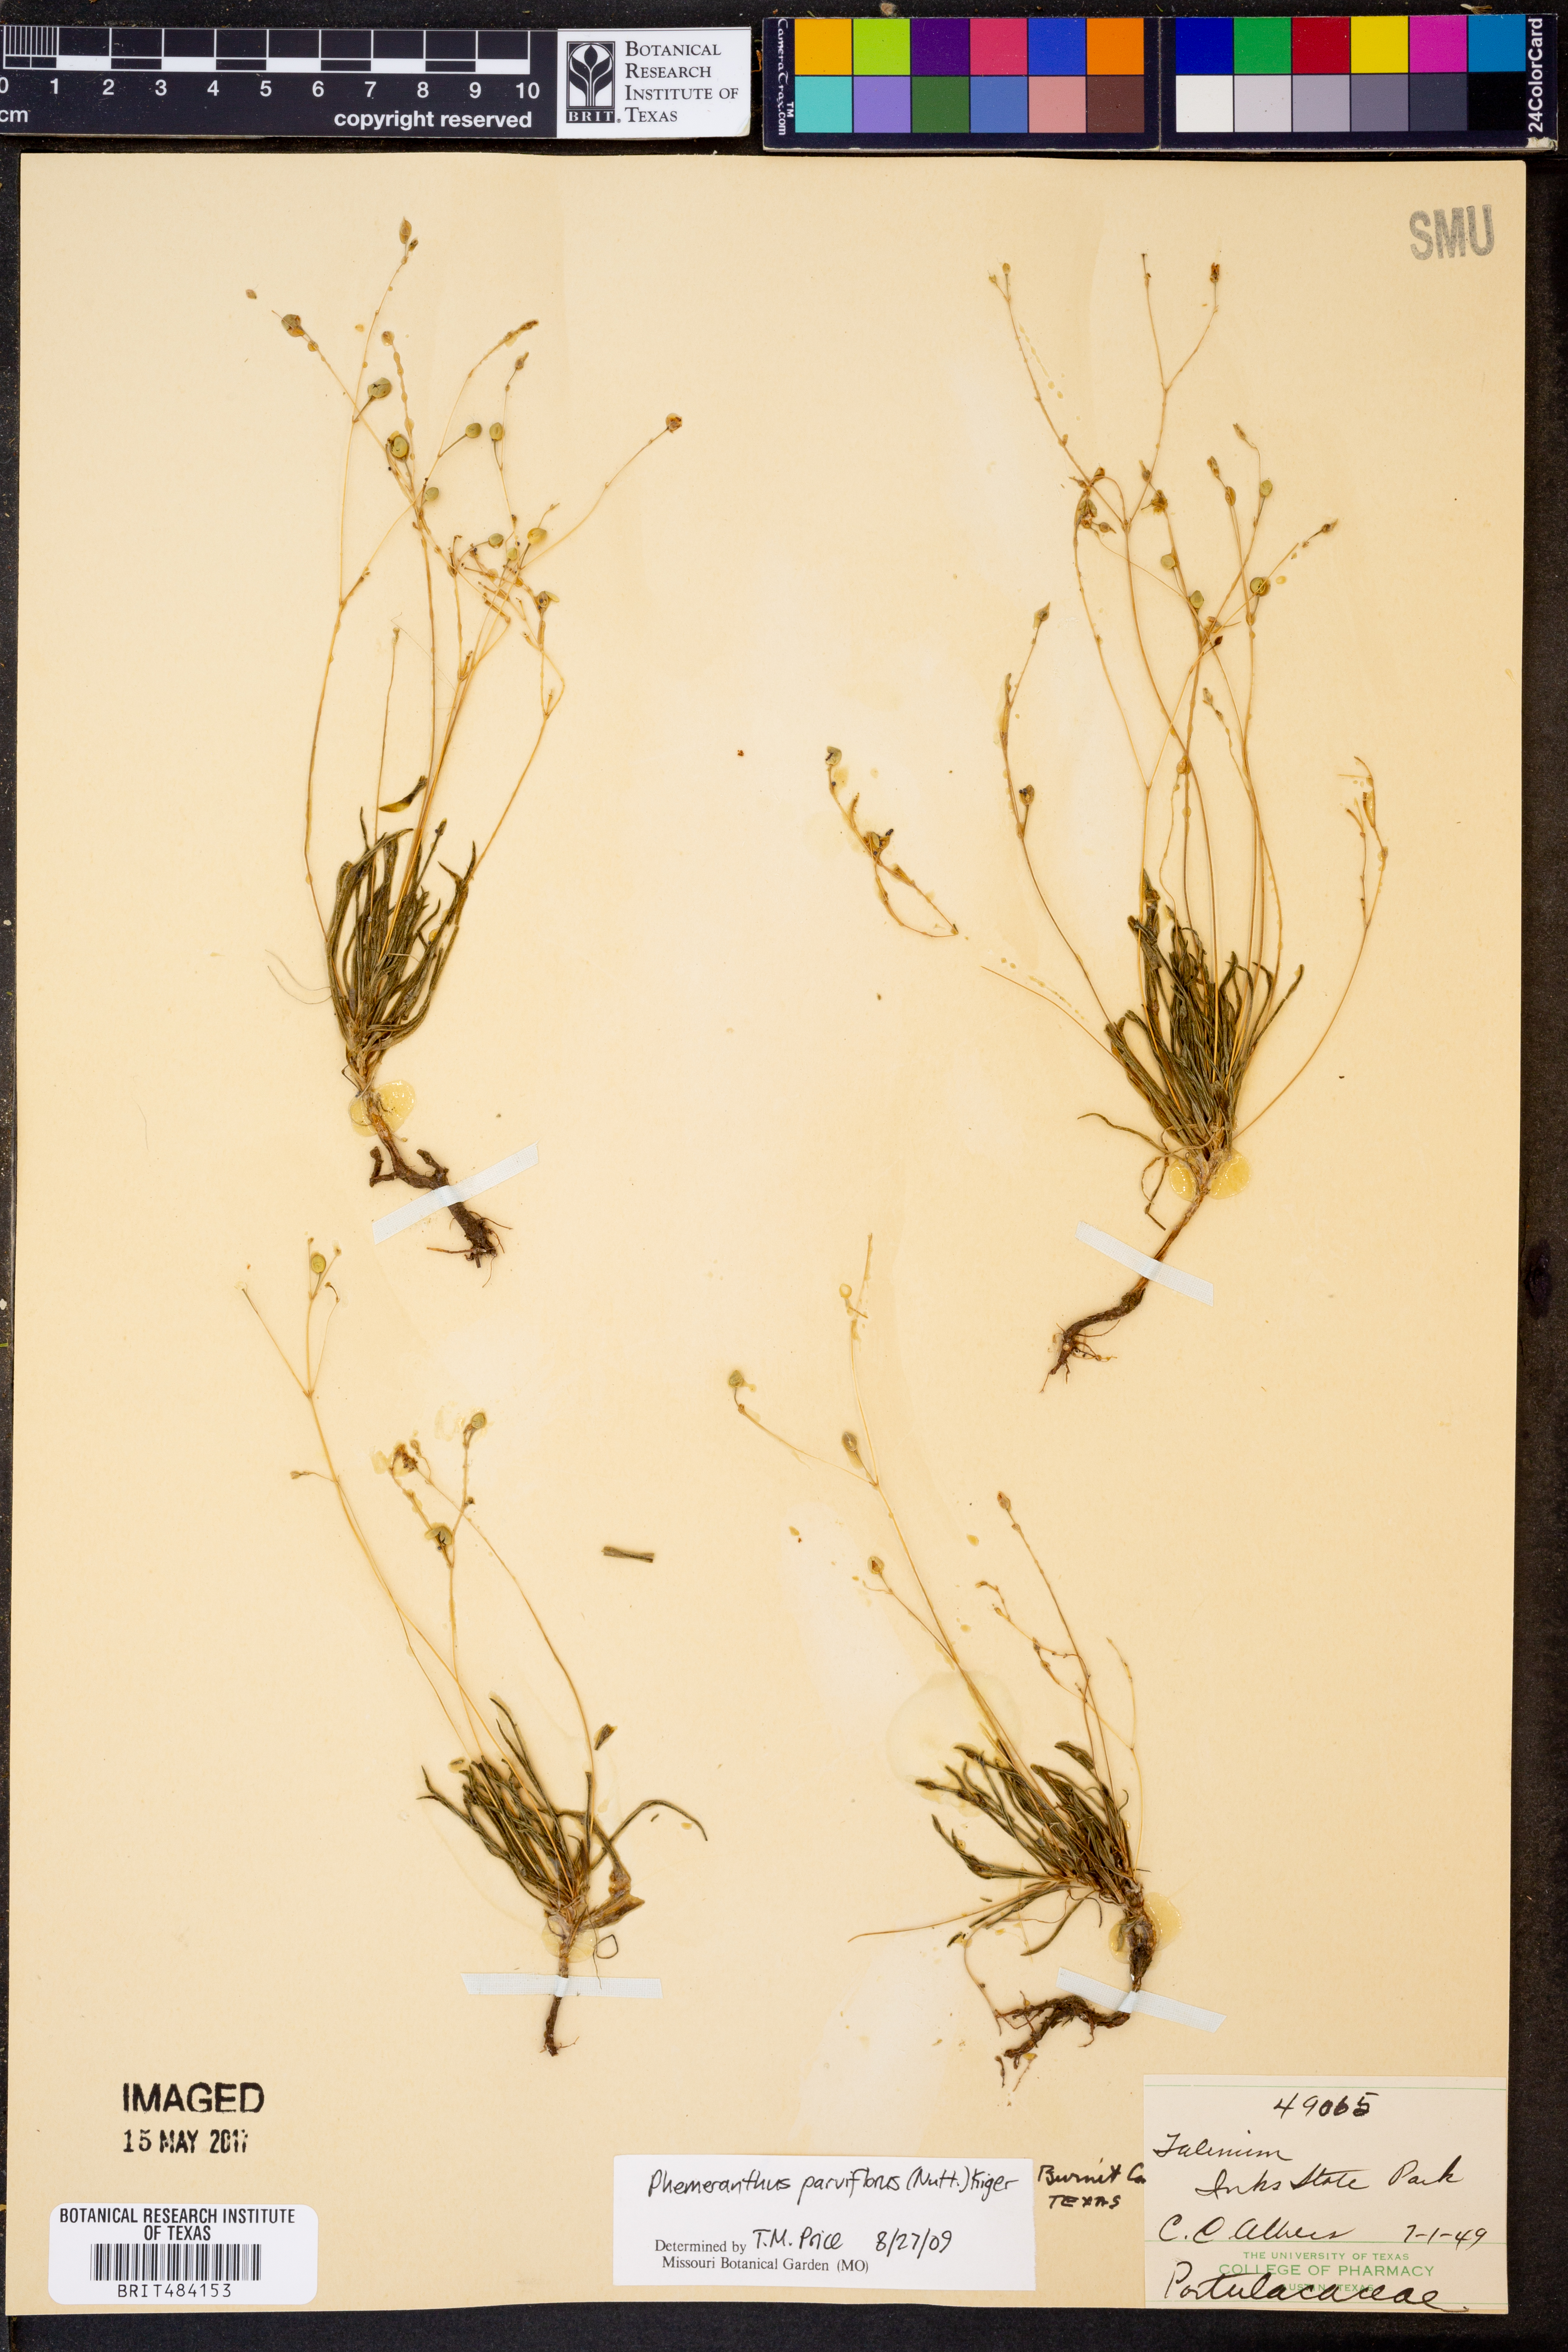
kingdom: Plantae
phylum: Tracheophyta
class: Magnoliopsida
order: Caryophyllales
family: Montiaceae
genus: Phemeranthus
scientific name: Phemeranthus parviflorus
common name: Sunbright
